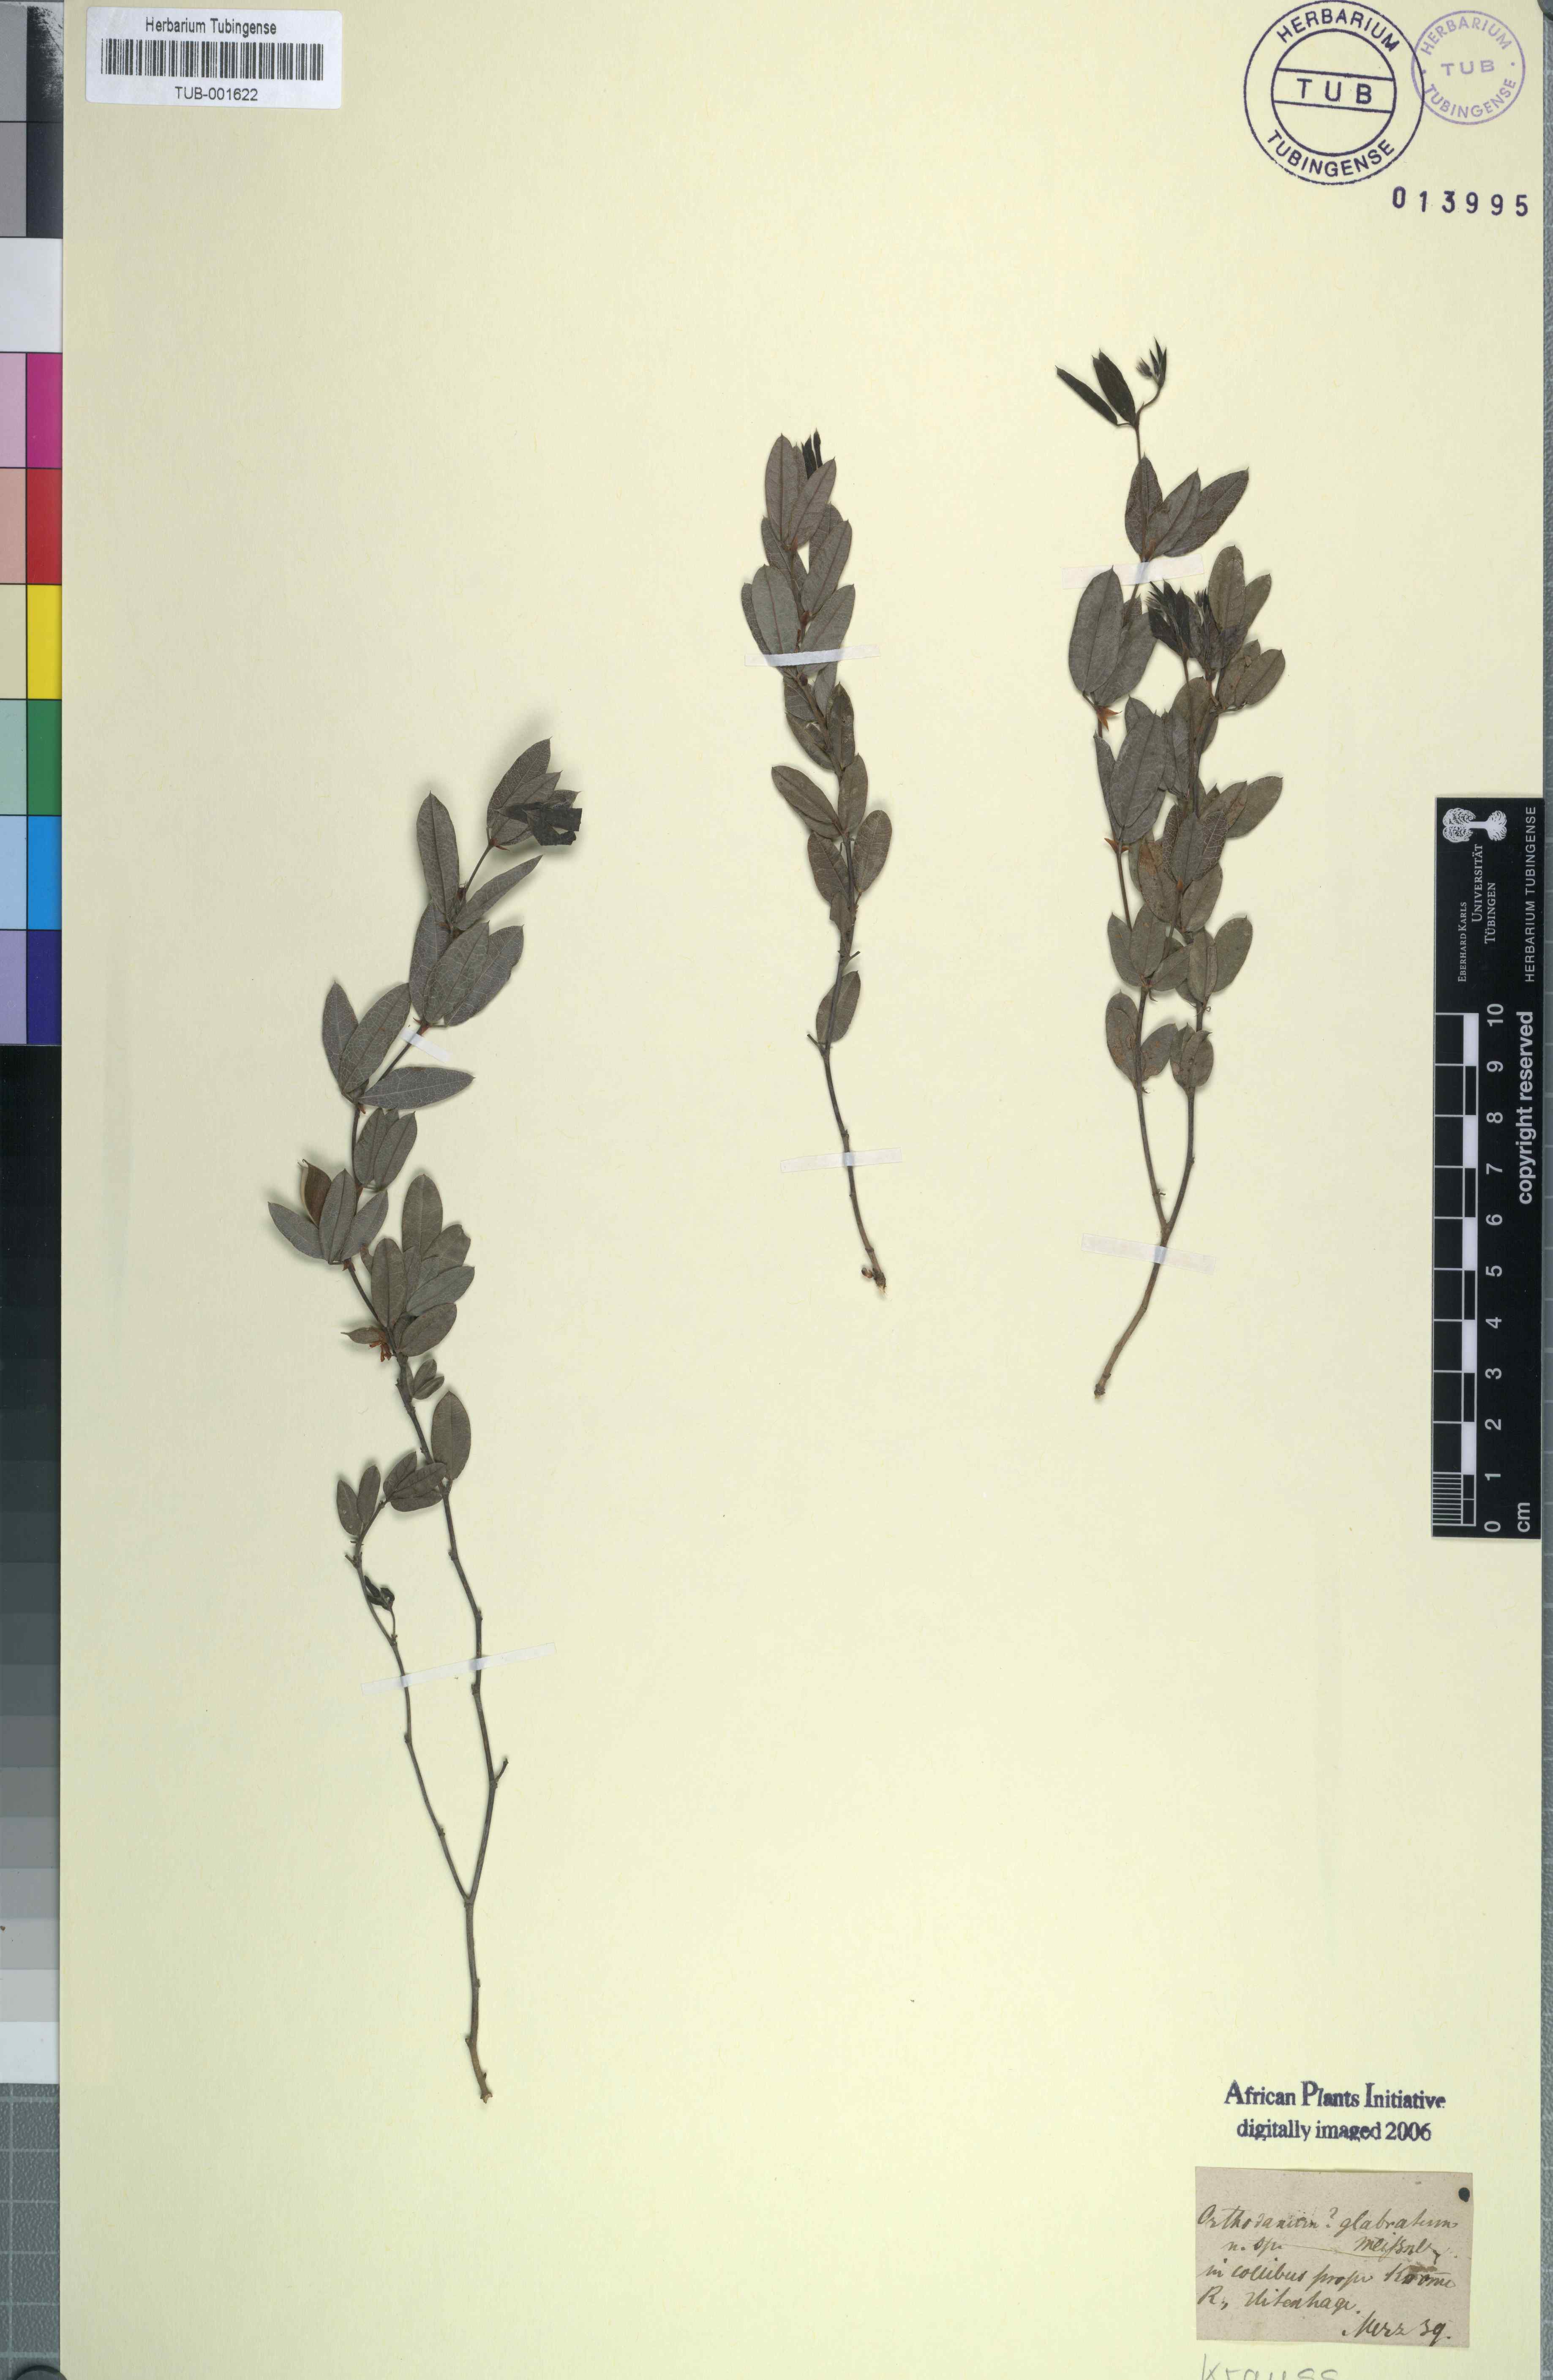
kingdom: Plantae
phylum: Tracheophyta
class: Magnoliopsida
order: Fabales
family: Fabaceae
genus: Rhynchosia
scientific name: Rhynchosia sordida
